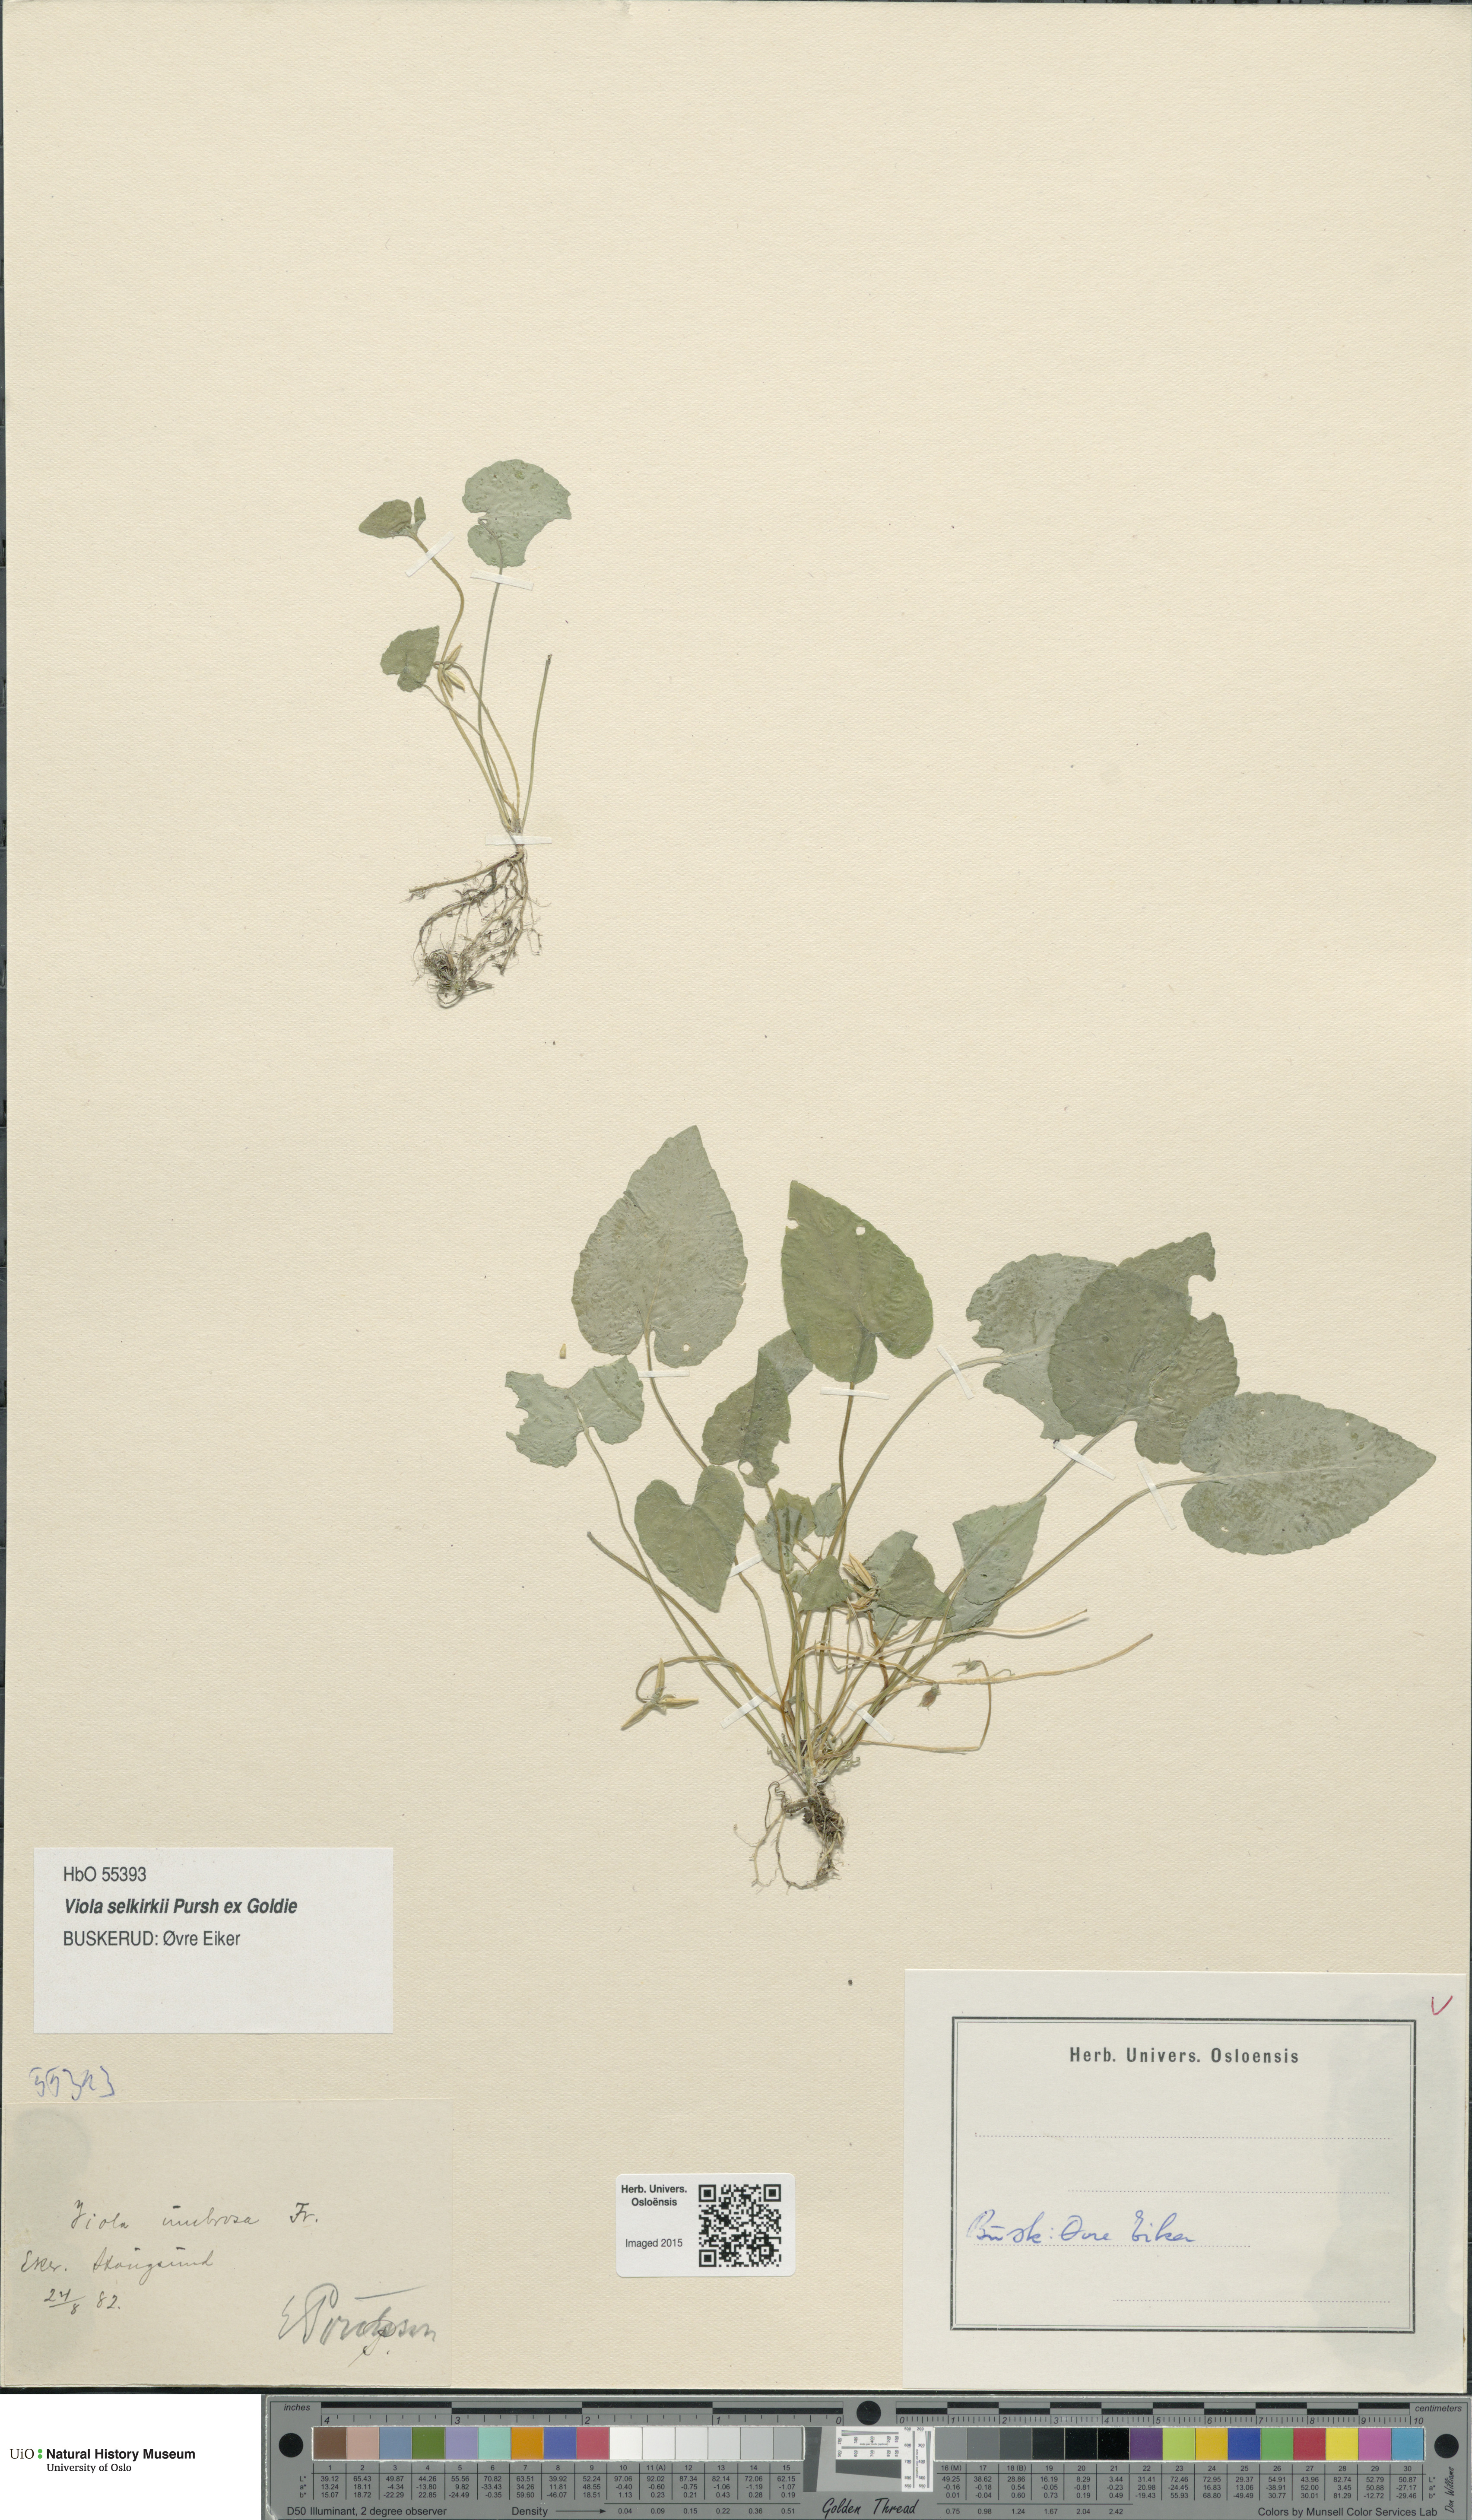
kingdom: Plantae
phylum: Tracheophyta
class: Magnoliopsida
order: Malpighiales
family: Violaceae
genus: Viola
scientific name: Viola selkirkii
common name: Selkirk's violet
